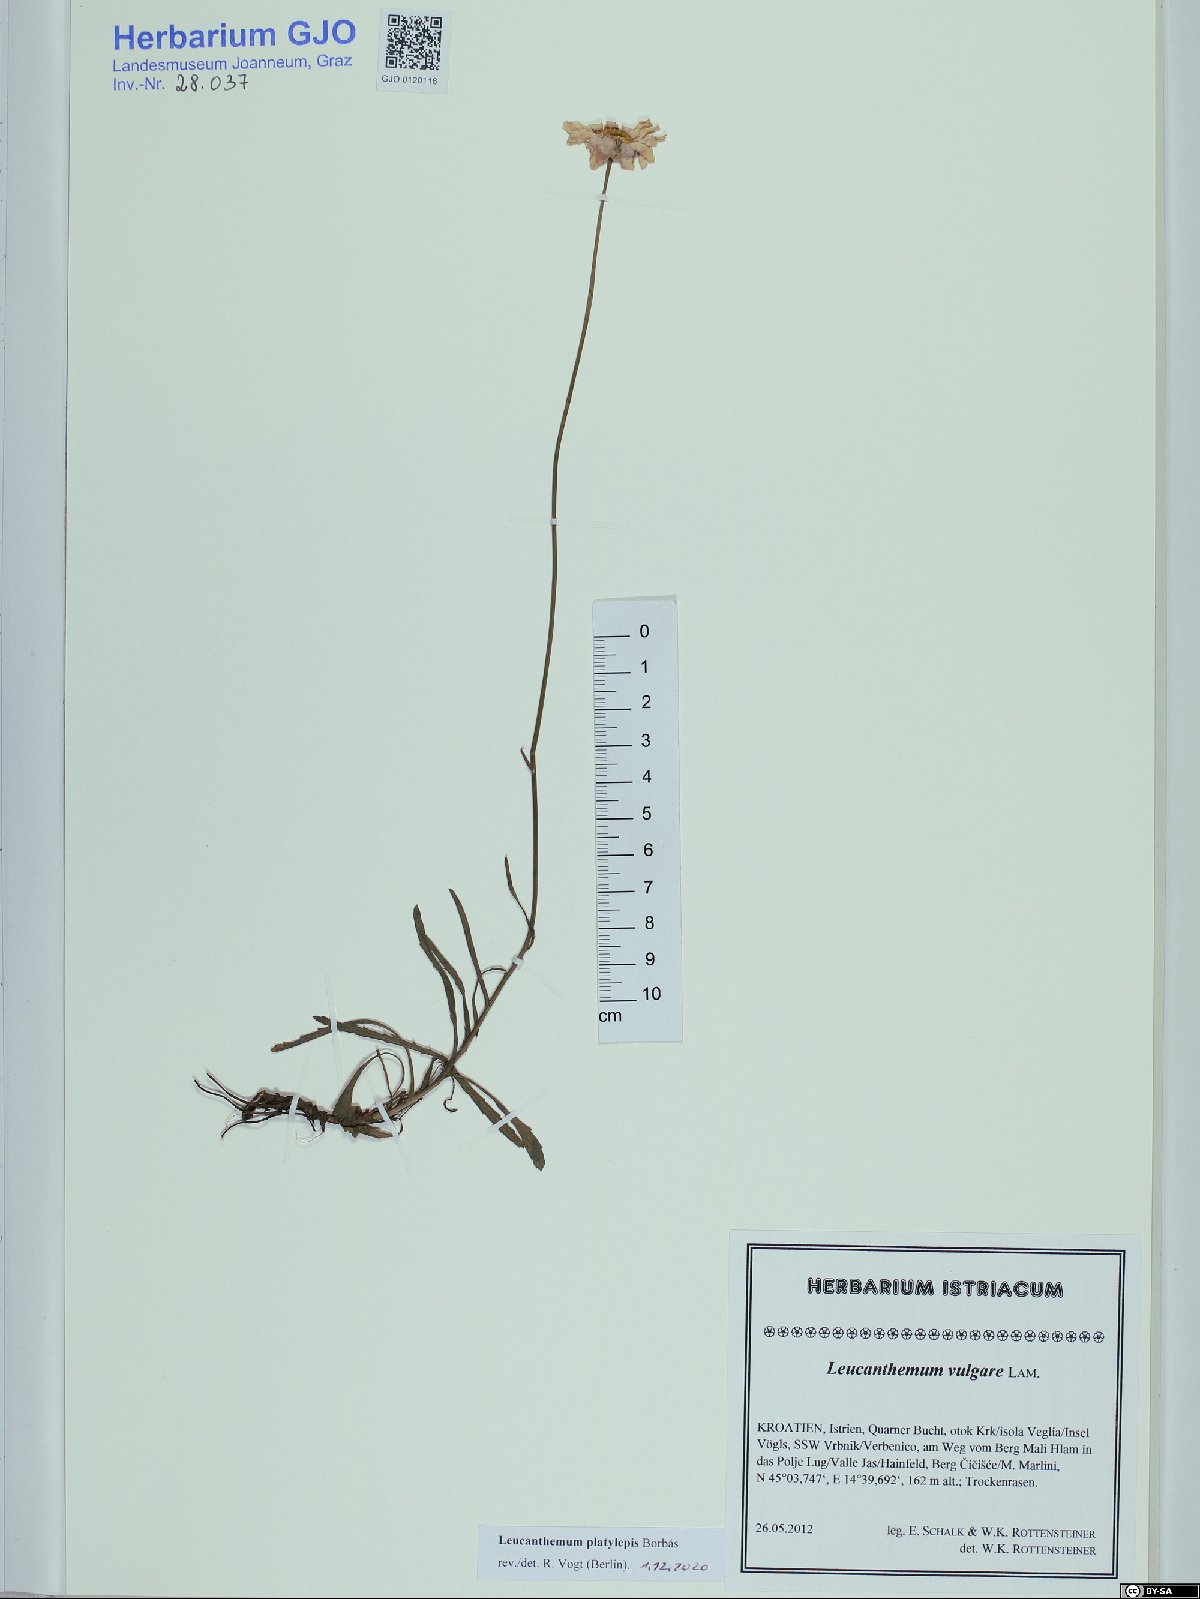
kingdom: Plantae
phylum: Tracheophyta
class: Magnoliopsida
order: Asterales
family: Asteraceae
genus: Leucanthemum
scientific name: Leucanthemum platylepis
